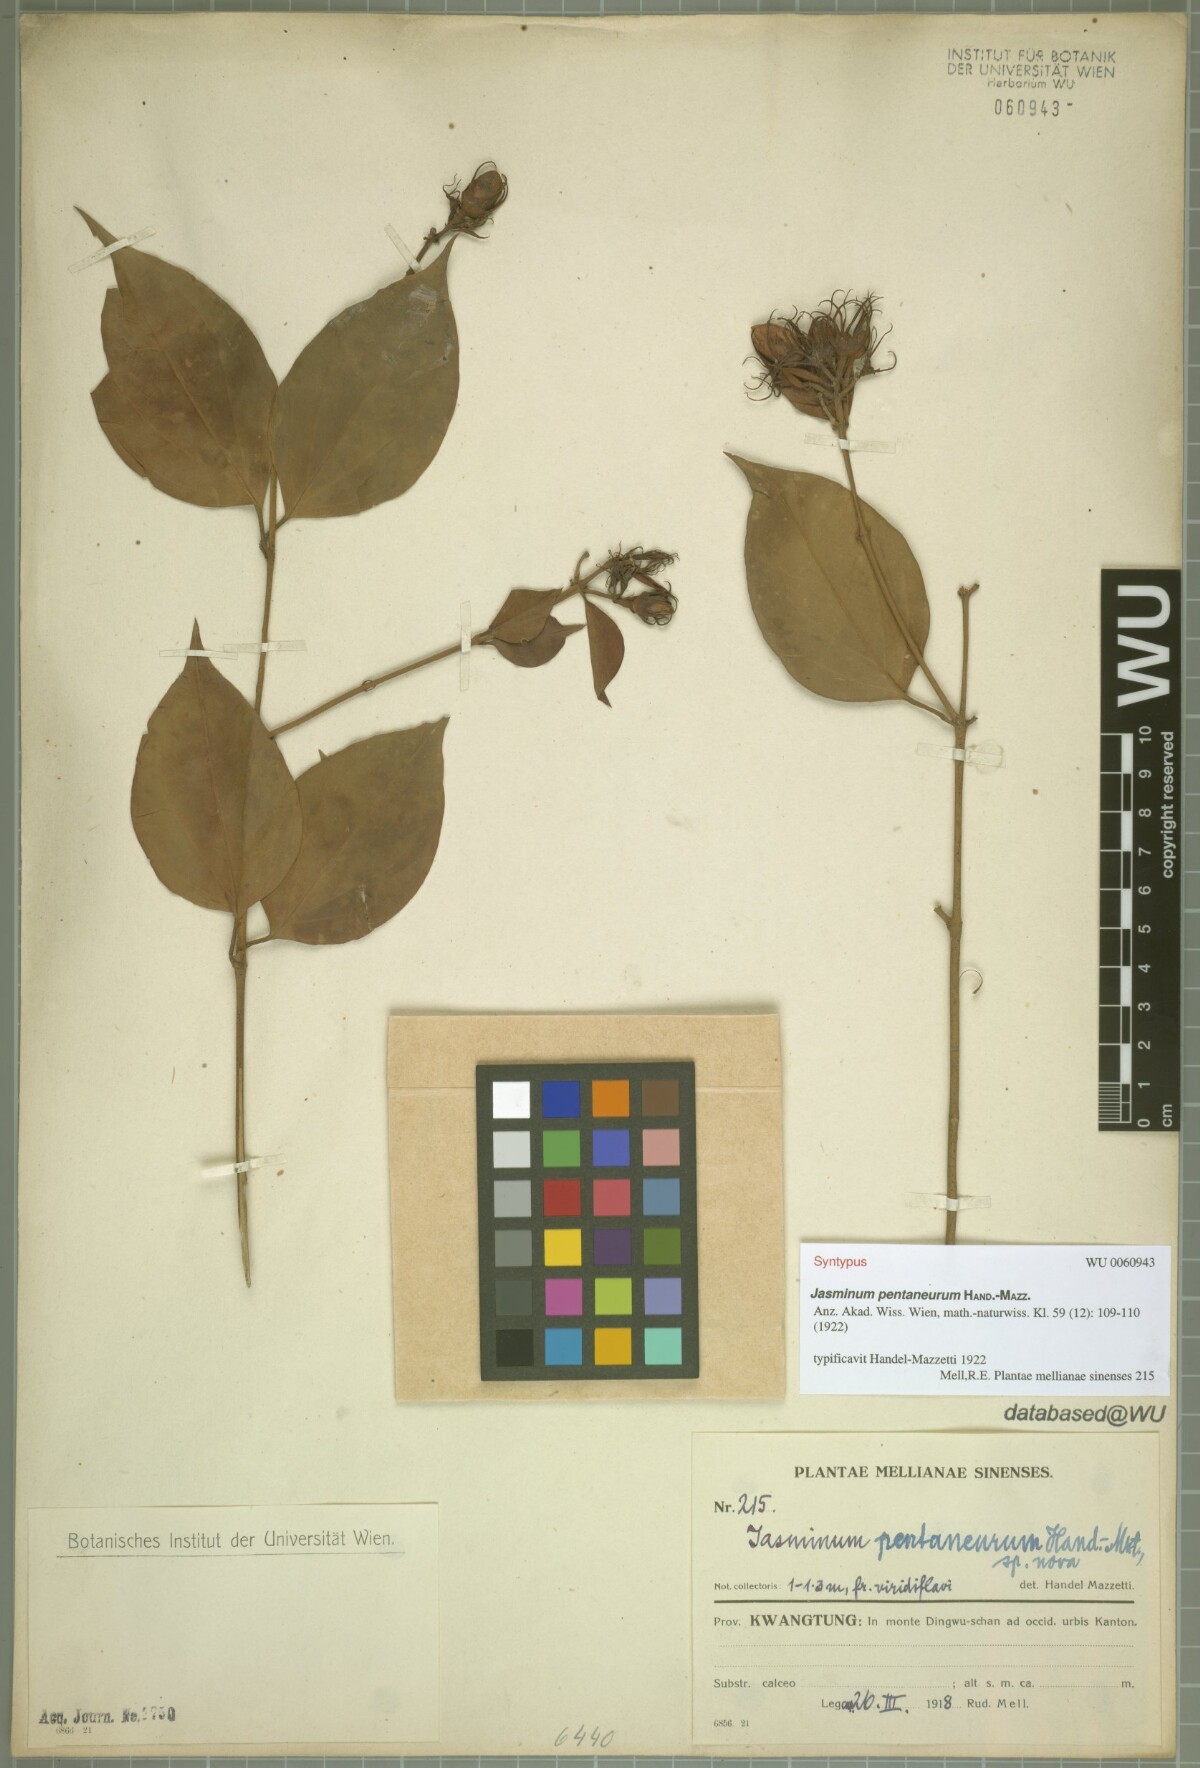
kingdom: Plantae
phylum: Tracheophyta
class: Magnoliopsida
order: Lamiales
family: Oleaceae
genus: Jasminum
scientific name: Jasminum pentaneurum
